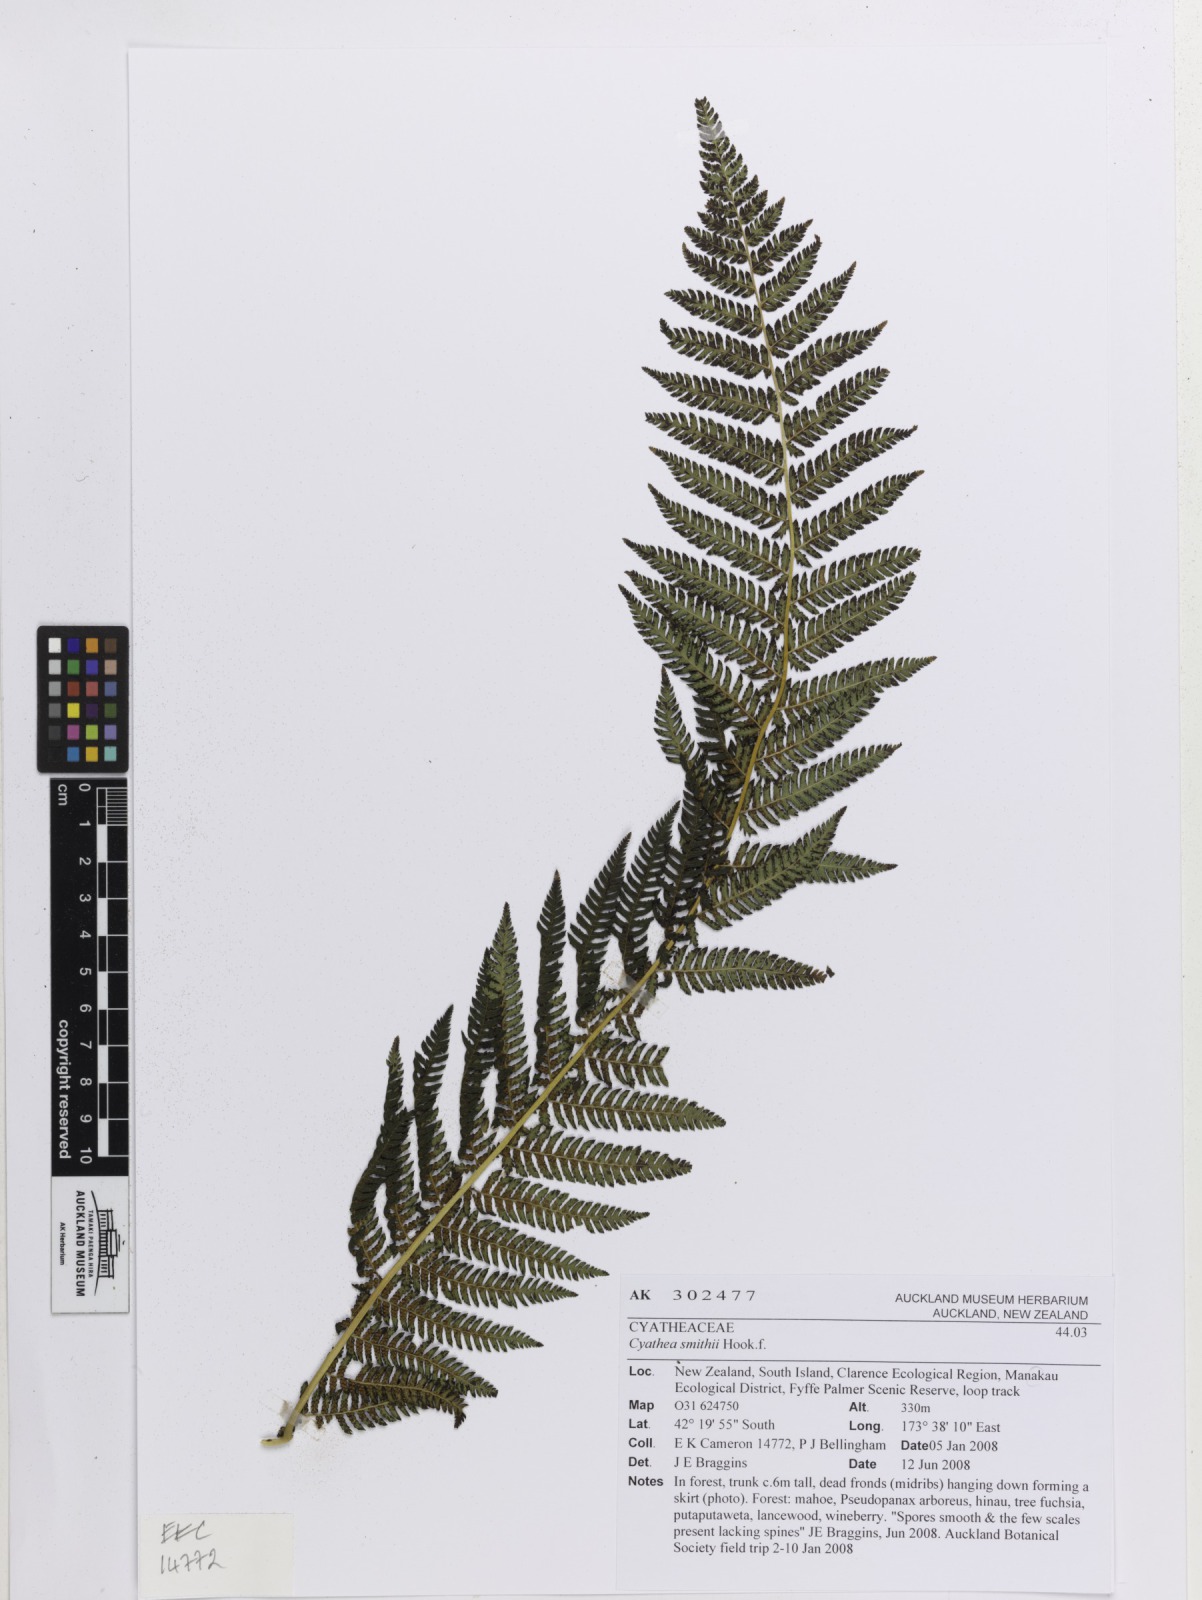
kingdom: Plantae
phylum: Tracheophyta
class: Polypodiopsida
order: Cyatheales
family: Cyatheaceae
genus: Alsophila
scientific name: Alsophila smithii
